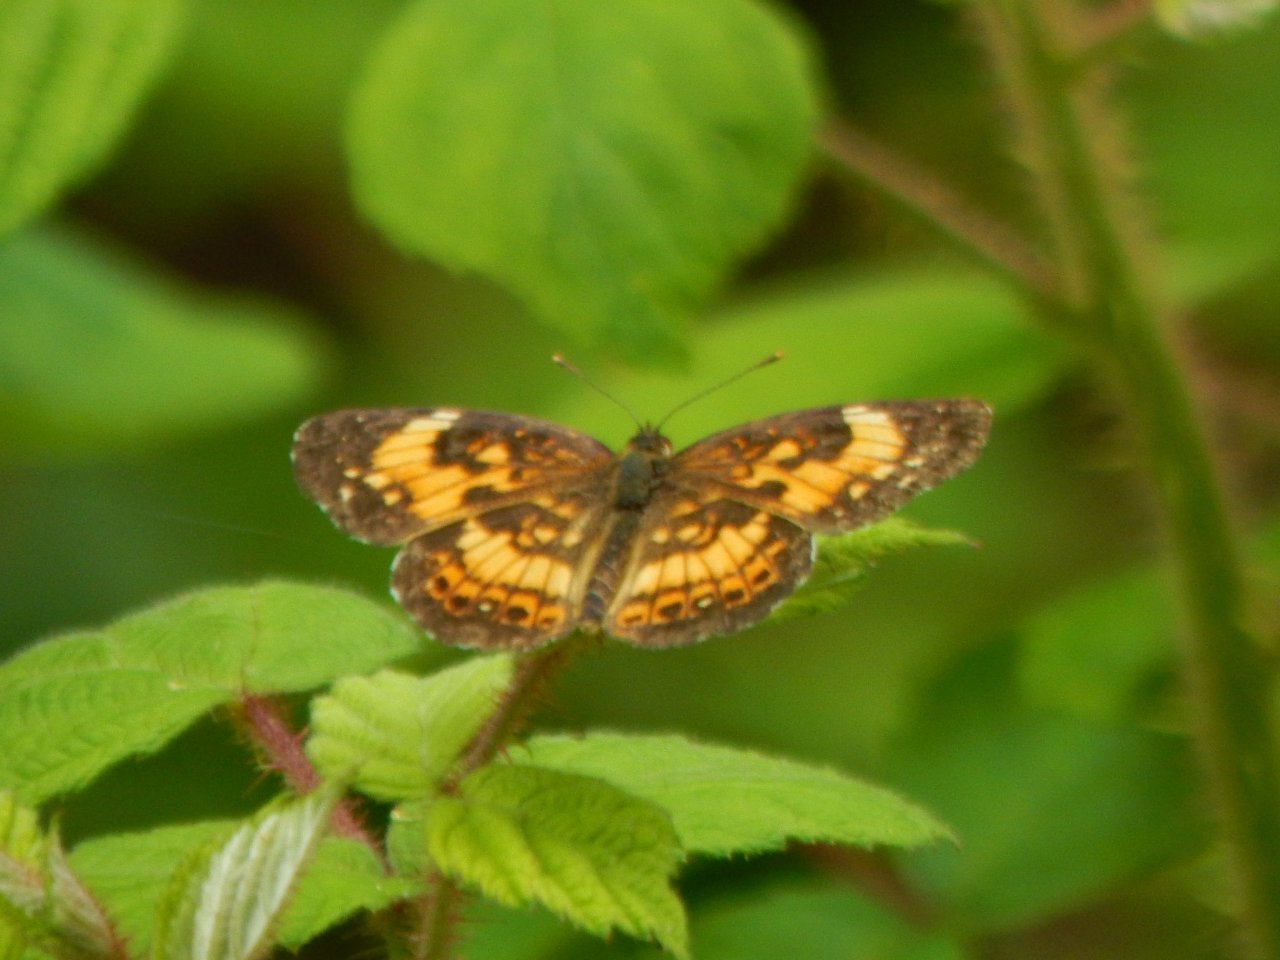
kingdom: Animalia
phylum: Arthropoda
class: Insecta
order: Lepidoptera
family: Nymphalidae
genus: Chlosyne
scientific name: Chlosyne nycteis
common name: Silvery Checkerspot
